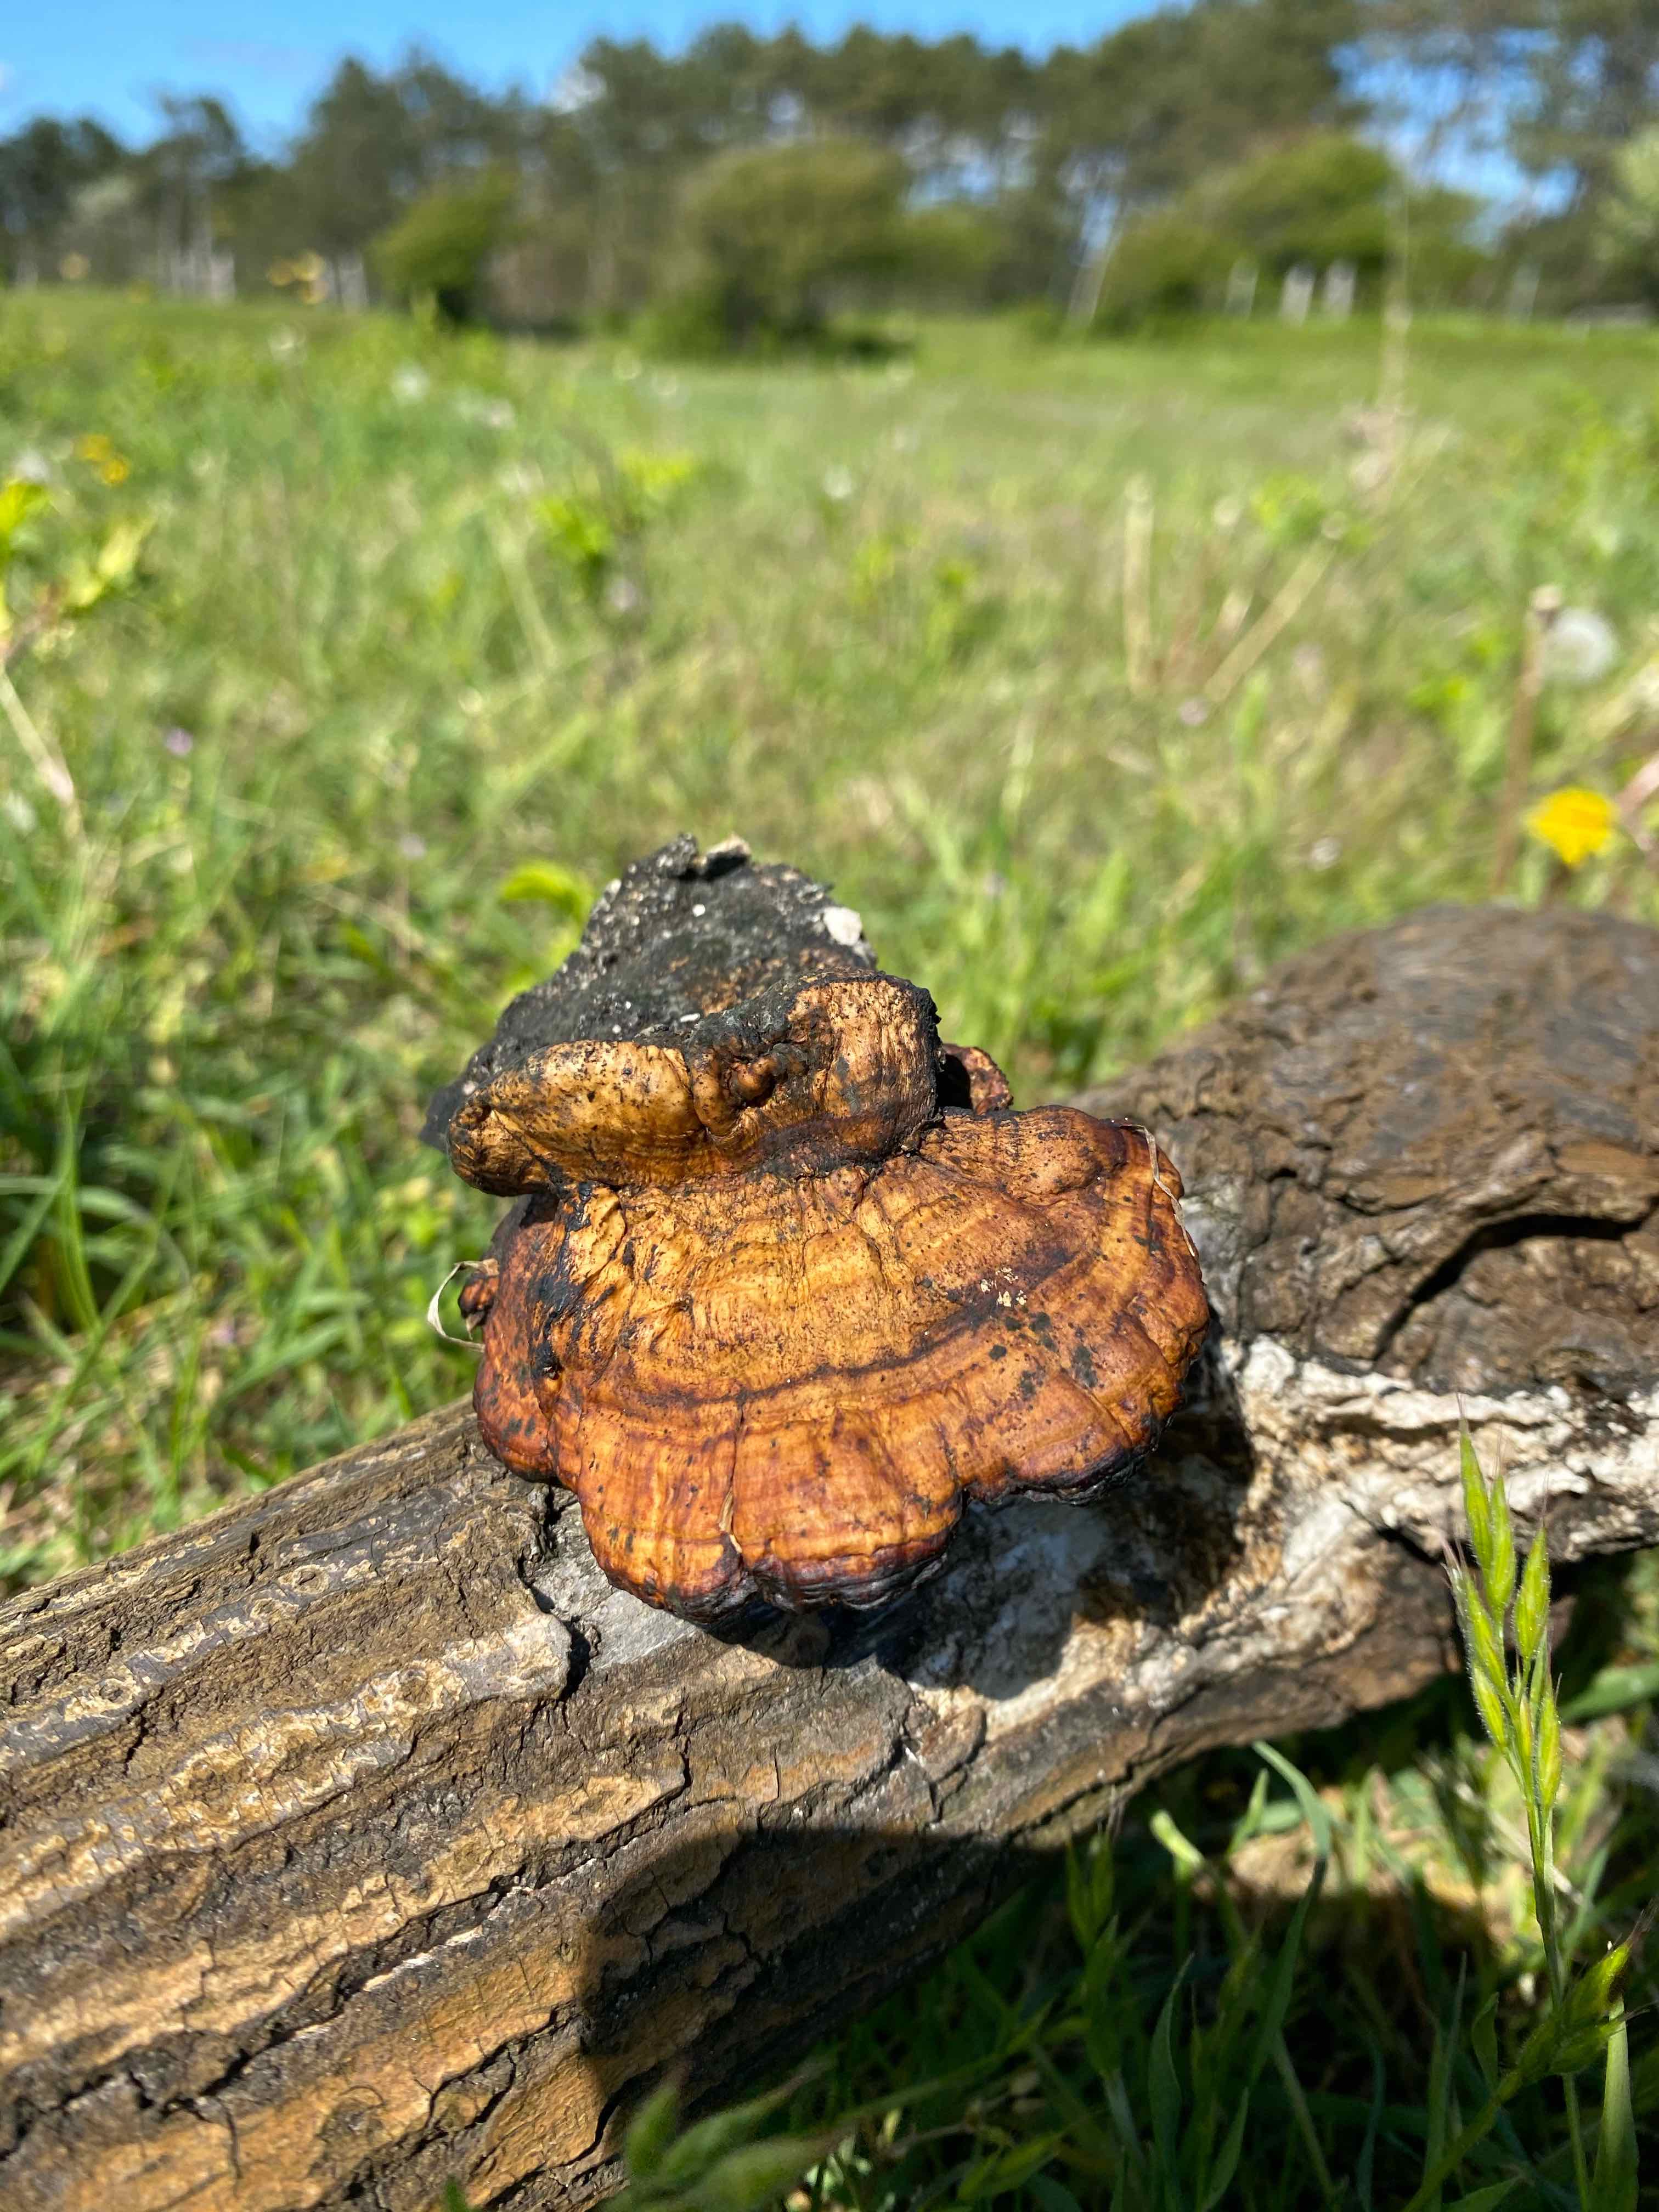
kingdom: Fungi
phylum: Basidiomycota
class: Agaricomycetes
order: Polyporales
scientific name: Polyporales
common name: poresvampordenen
